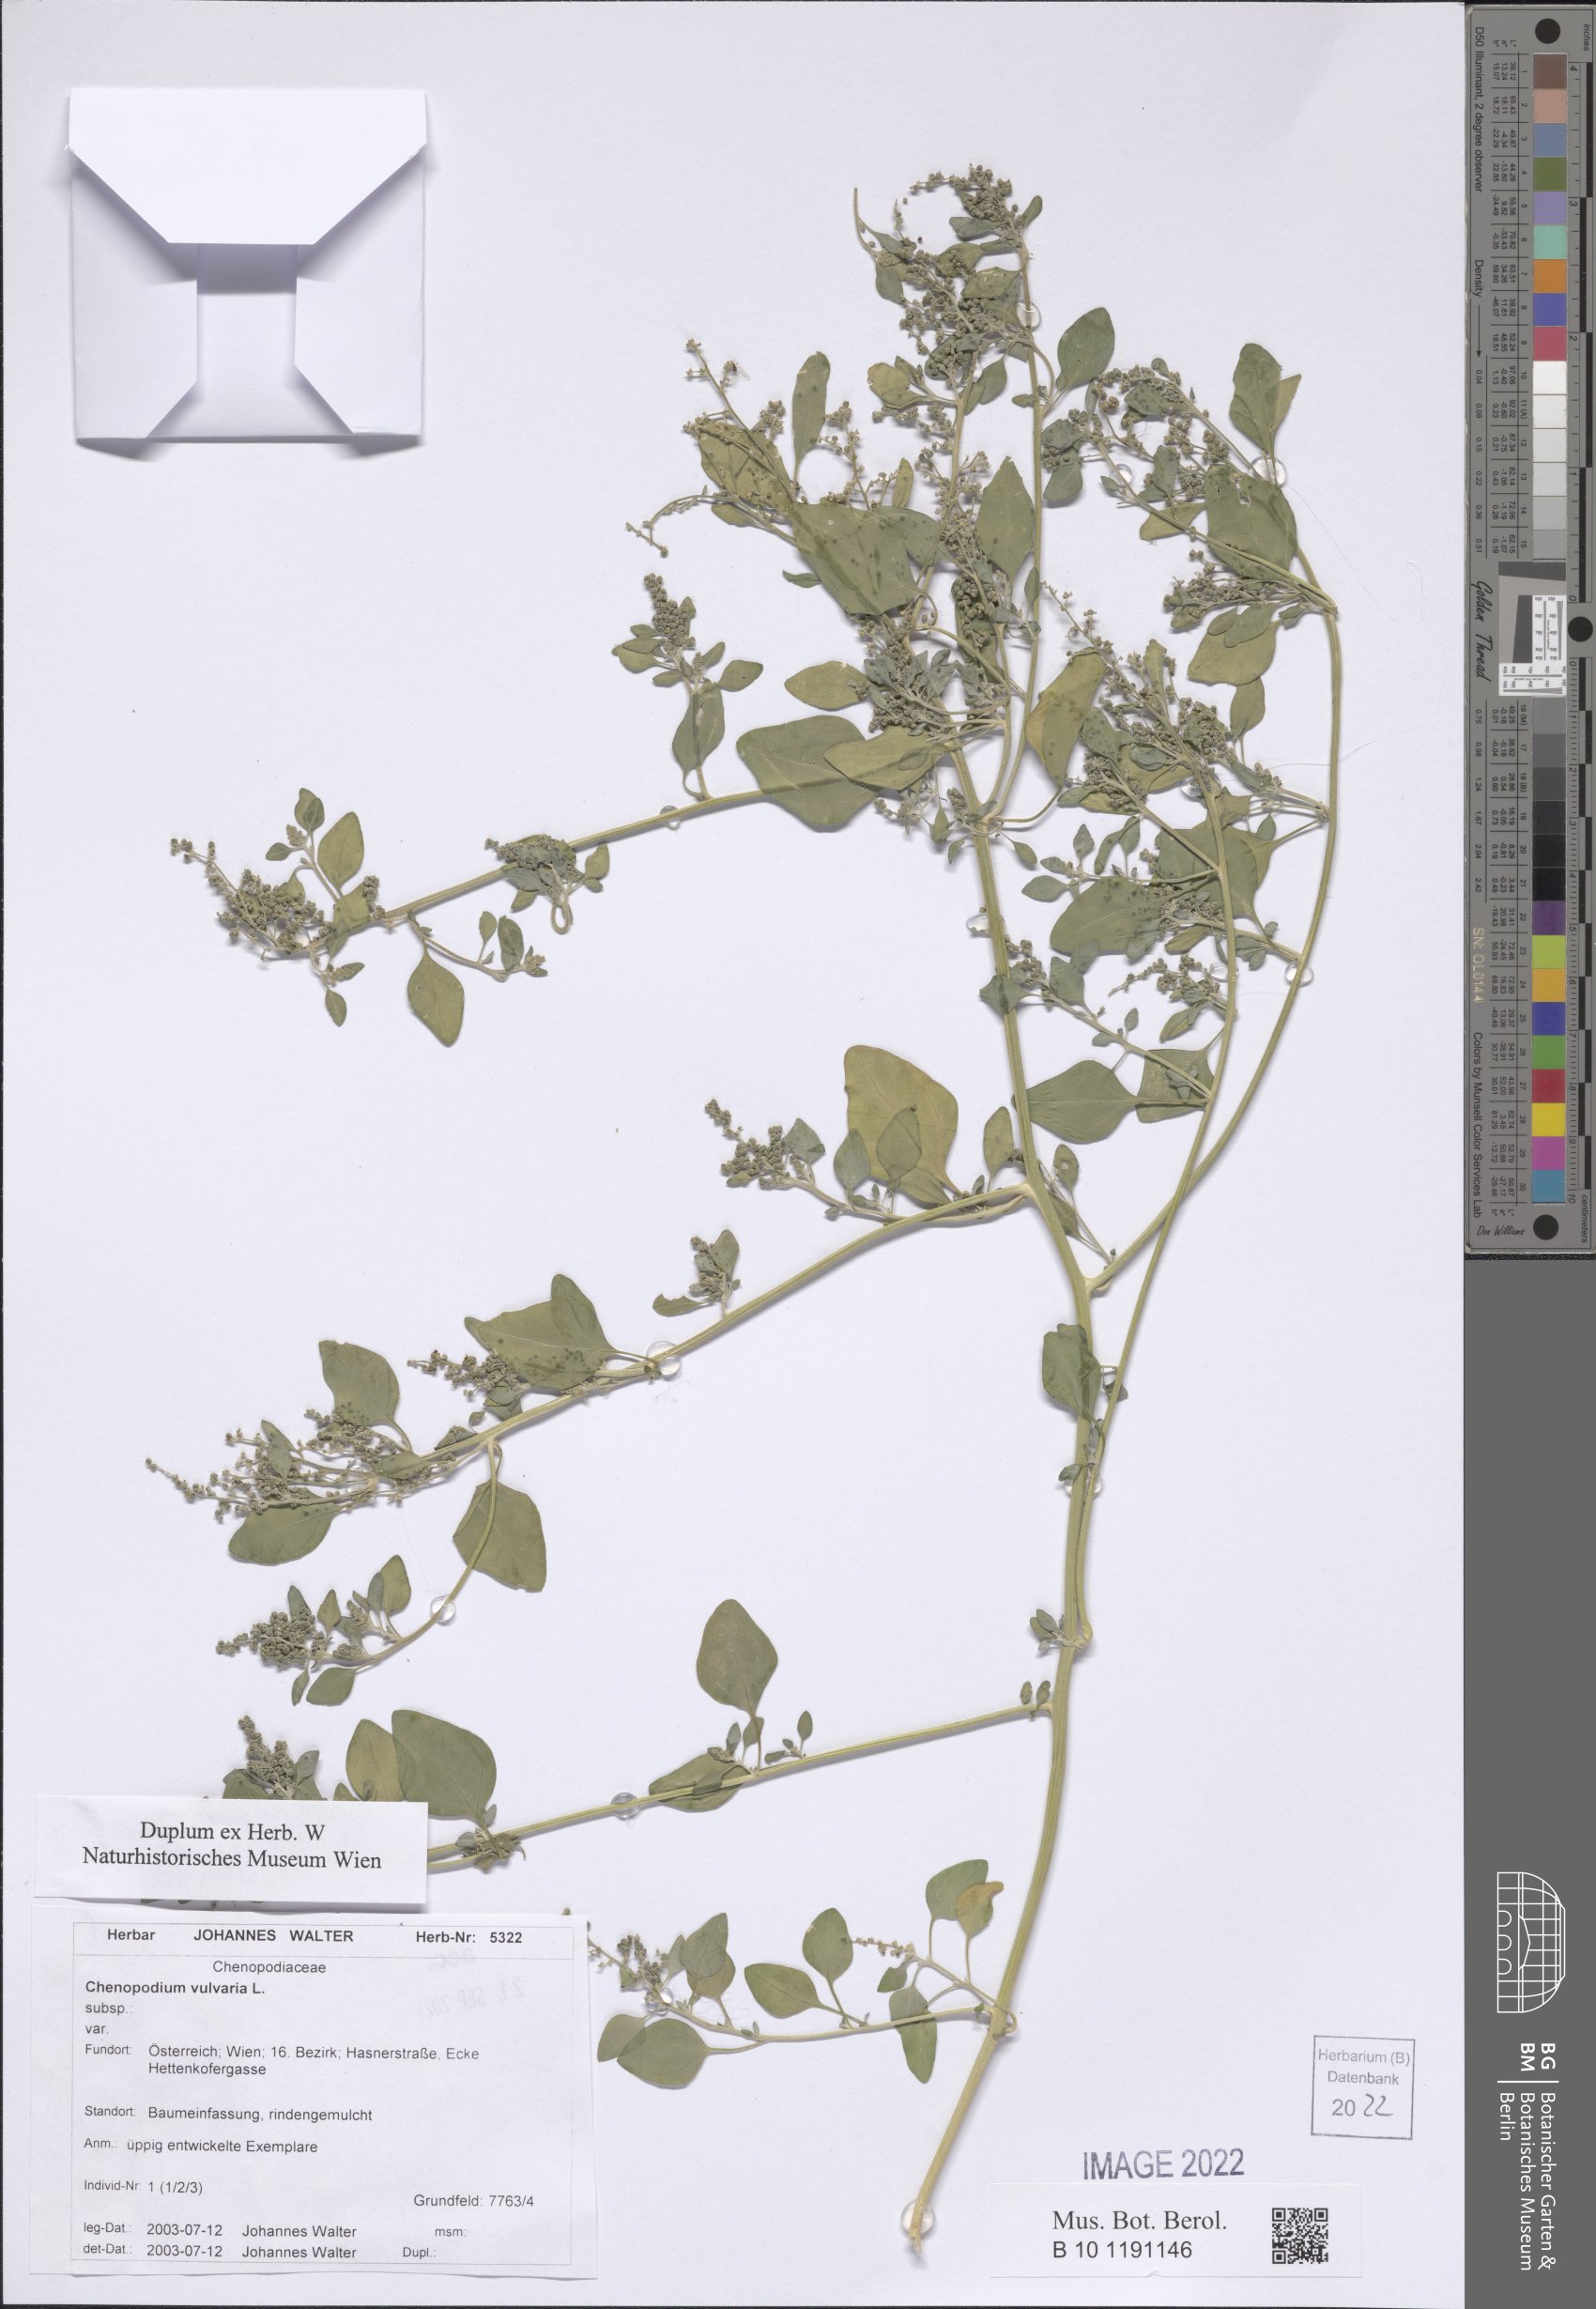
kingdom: Plantae
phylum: Tracheophyta
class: Magnoliopsida
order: Caryophyllales
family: Amaranthaceae
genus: Chenopodium
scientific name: Chenopodium vulvaria
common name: Stinking goosefoot
